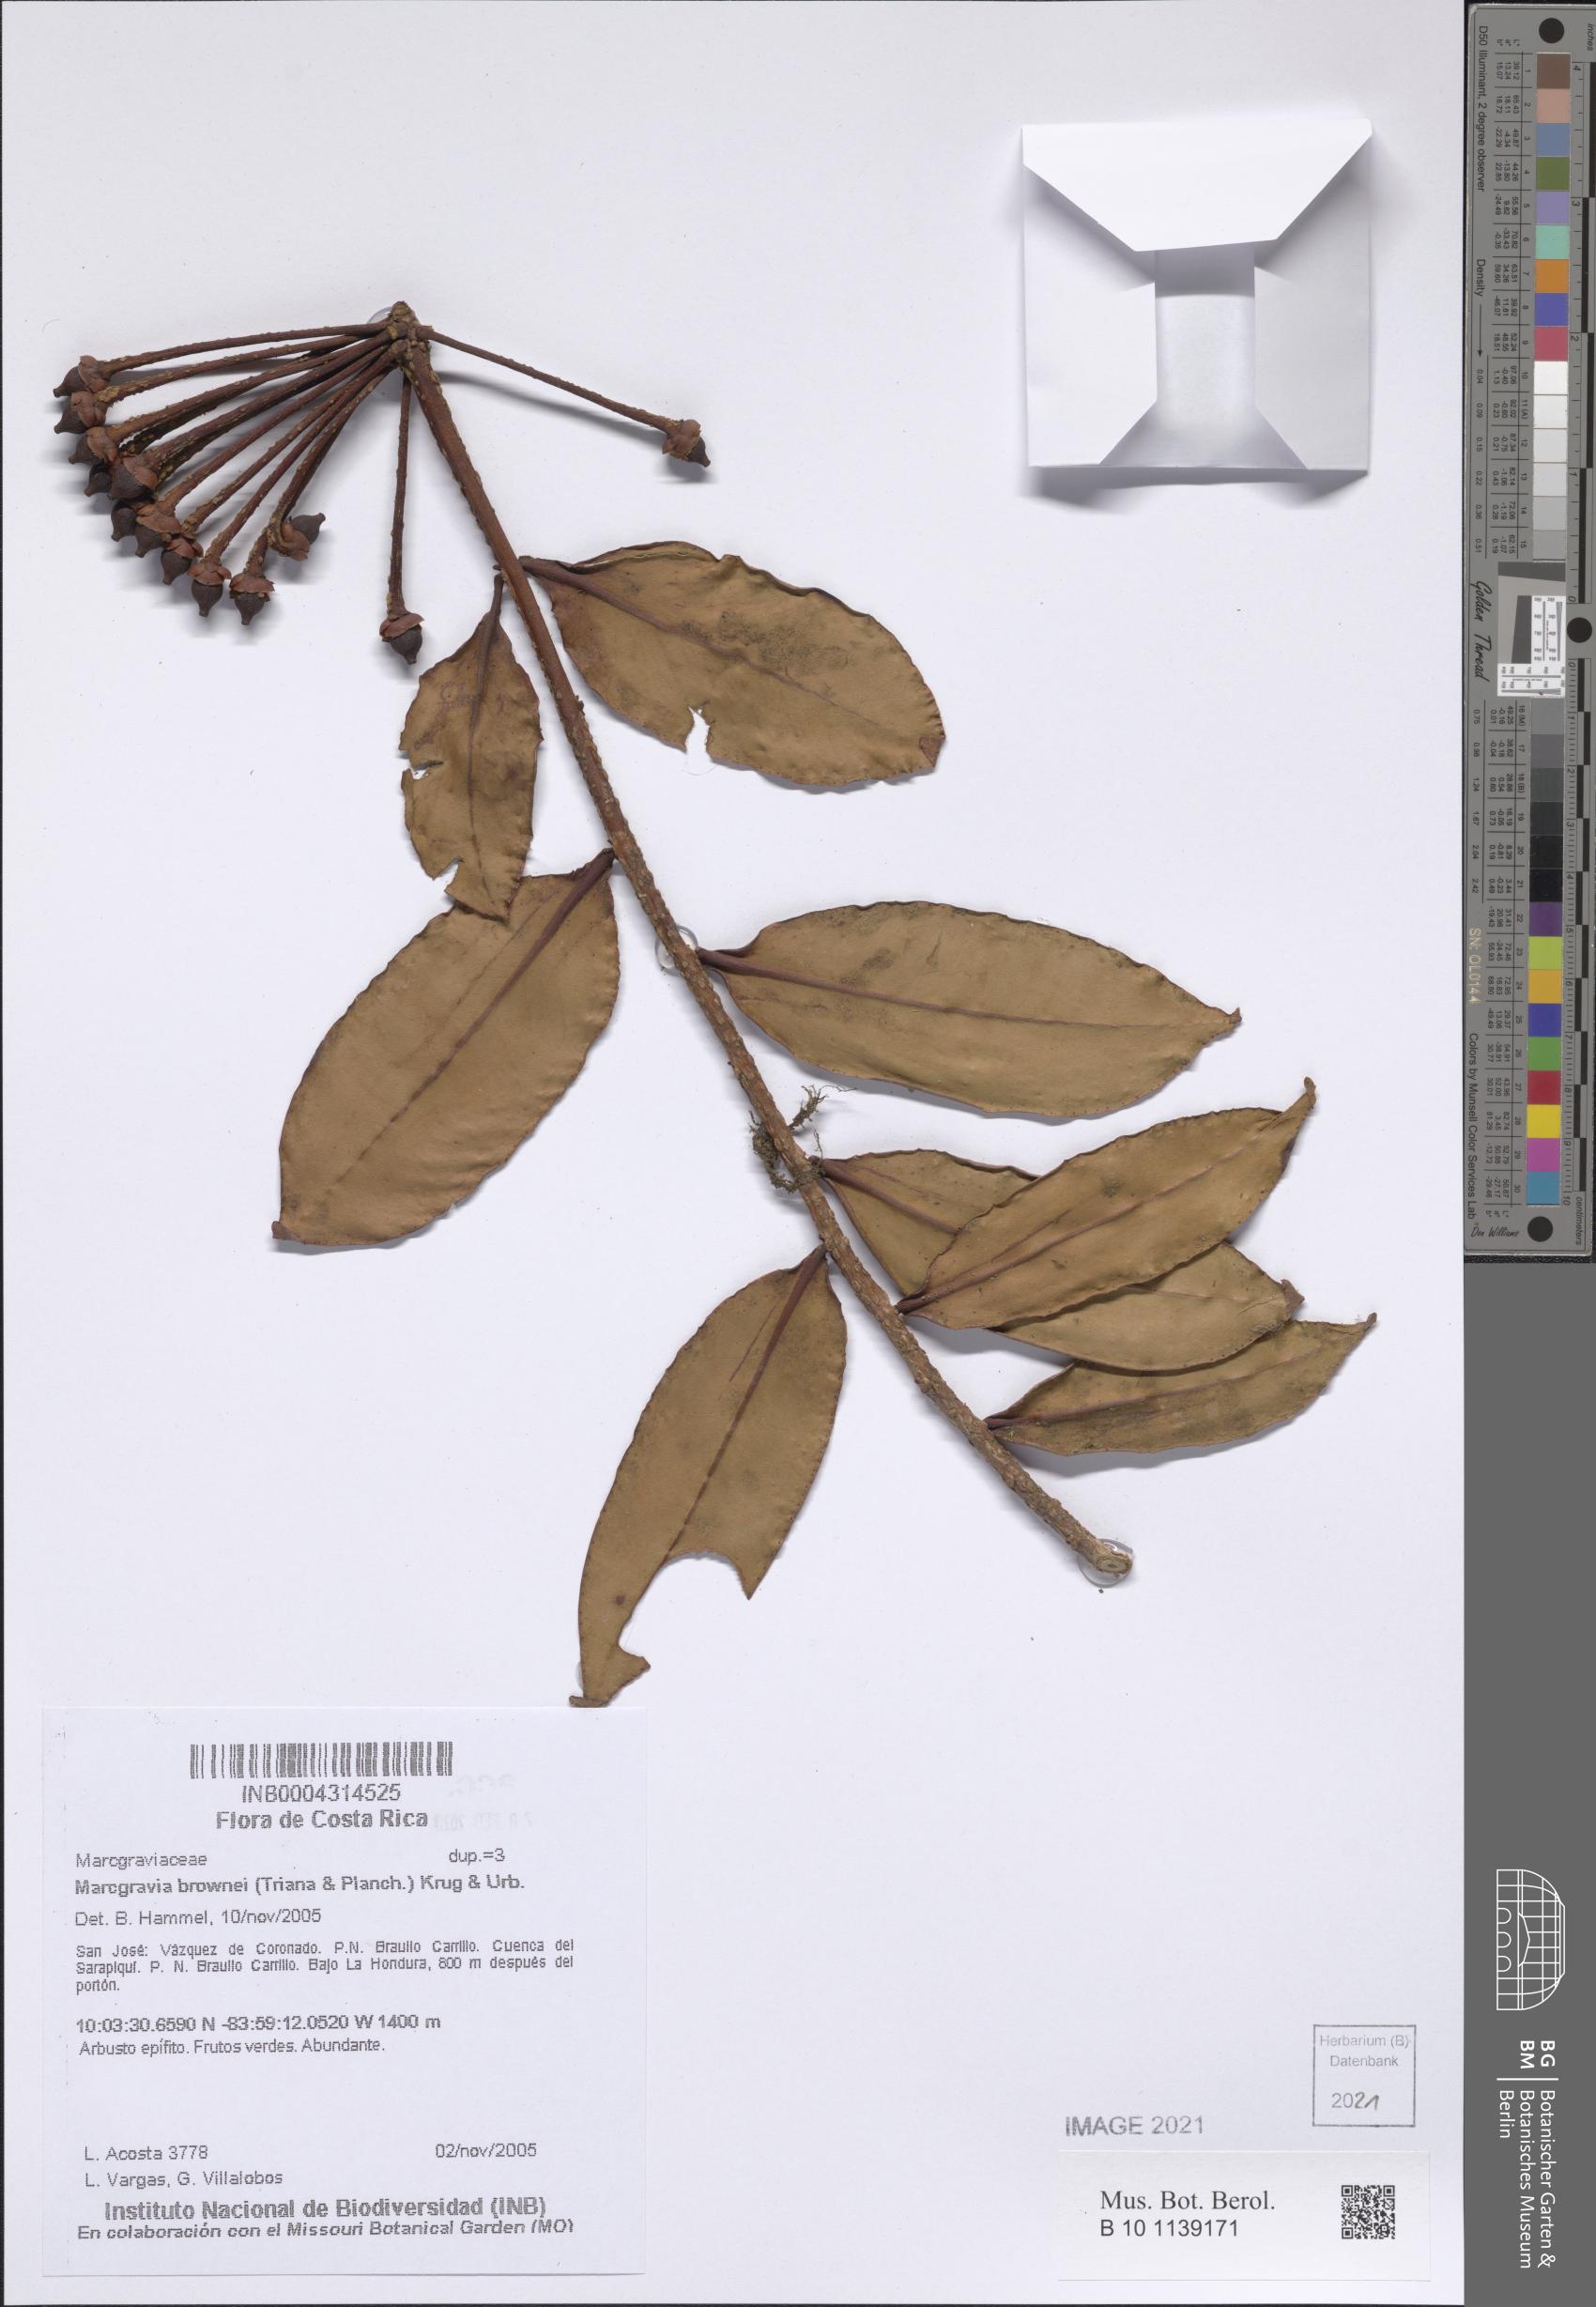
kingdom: Plantae
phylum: Tracheophyta
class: Magnoliopsida
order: Ericales
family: Marcgraviaceae
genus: Marcgravia
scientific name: Marcgravia brownei
